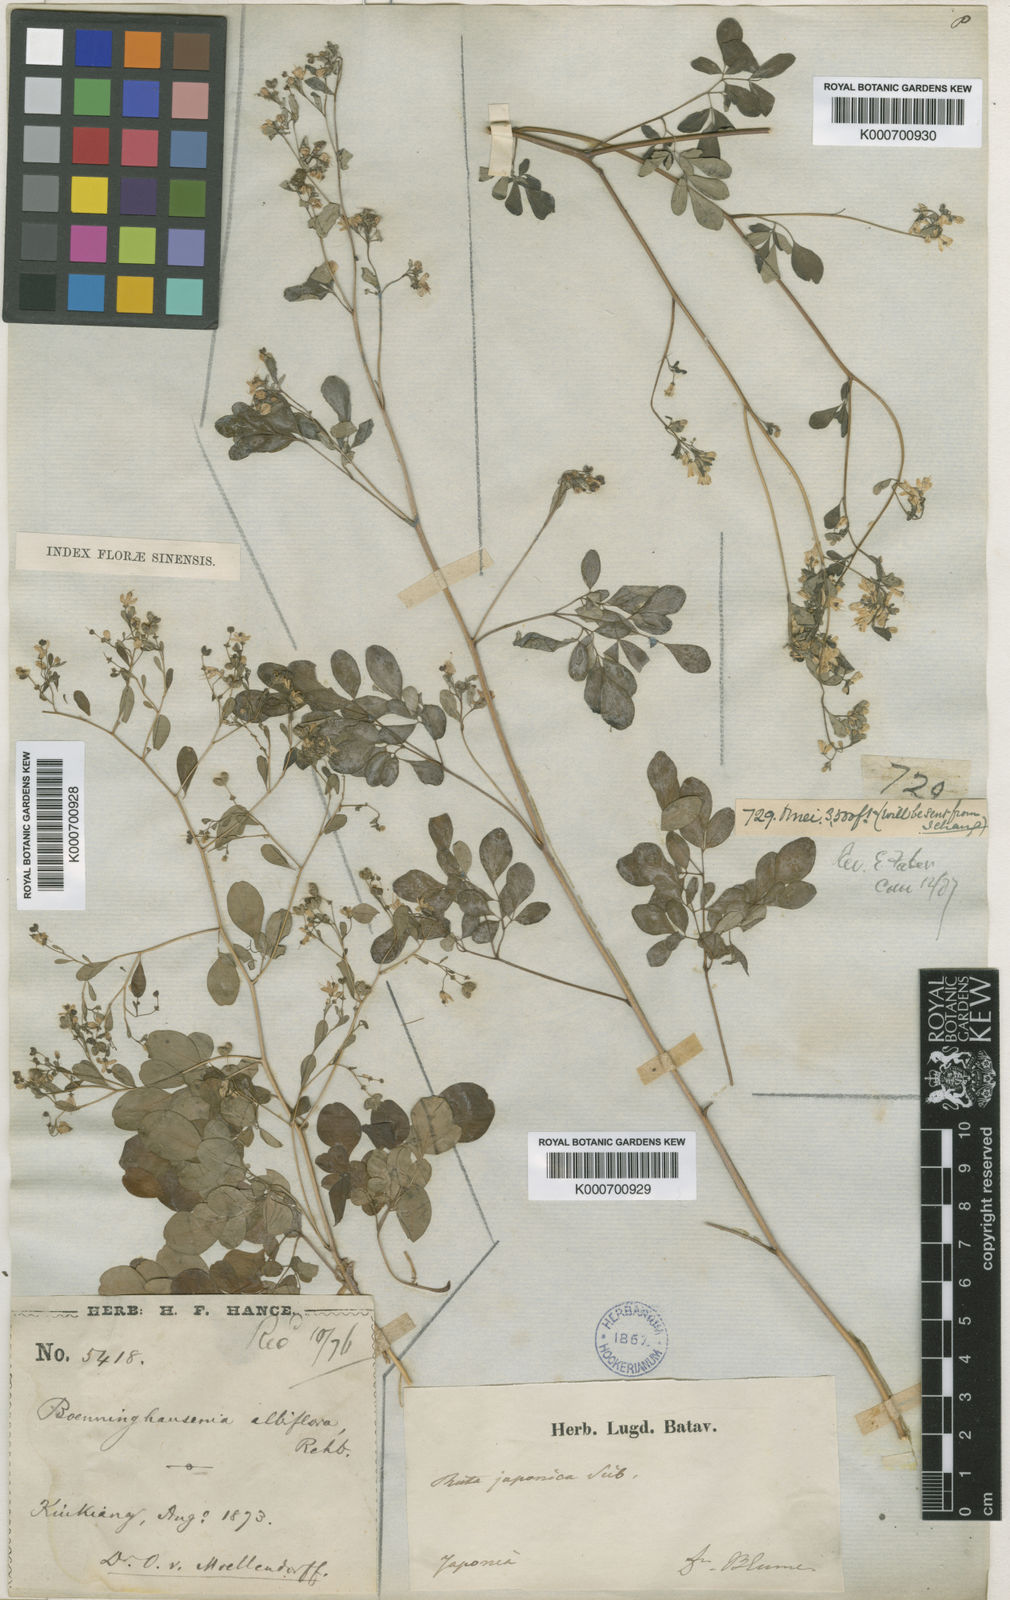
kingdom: Plantae
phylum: Tracheophyta
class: Magnoliopsida
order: Sapindales
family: Rutaceae
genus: Boenninghausenia
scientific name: Boenninghausenia albiflora
